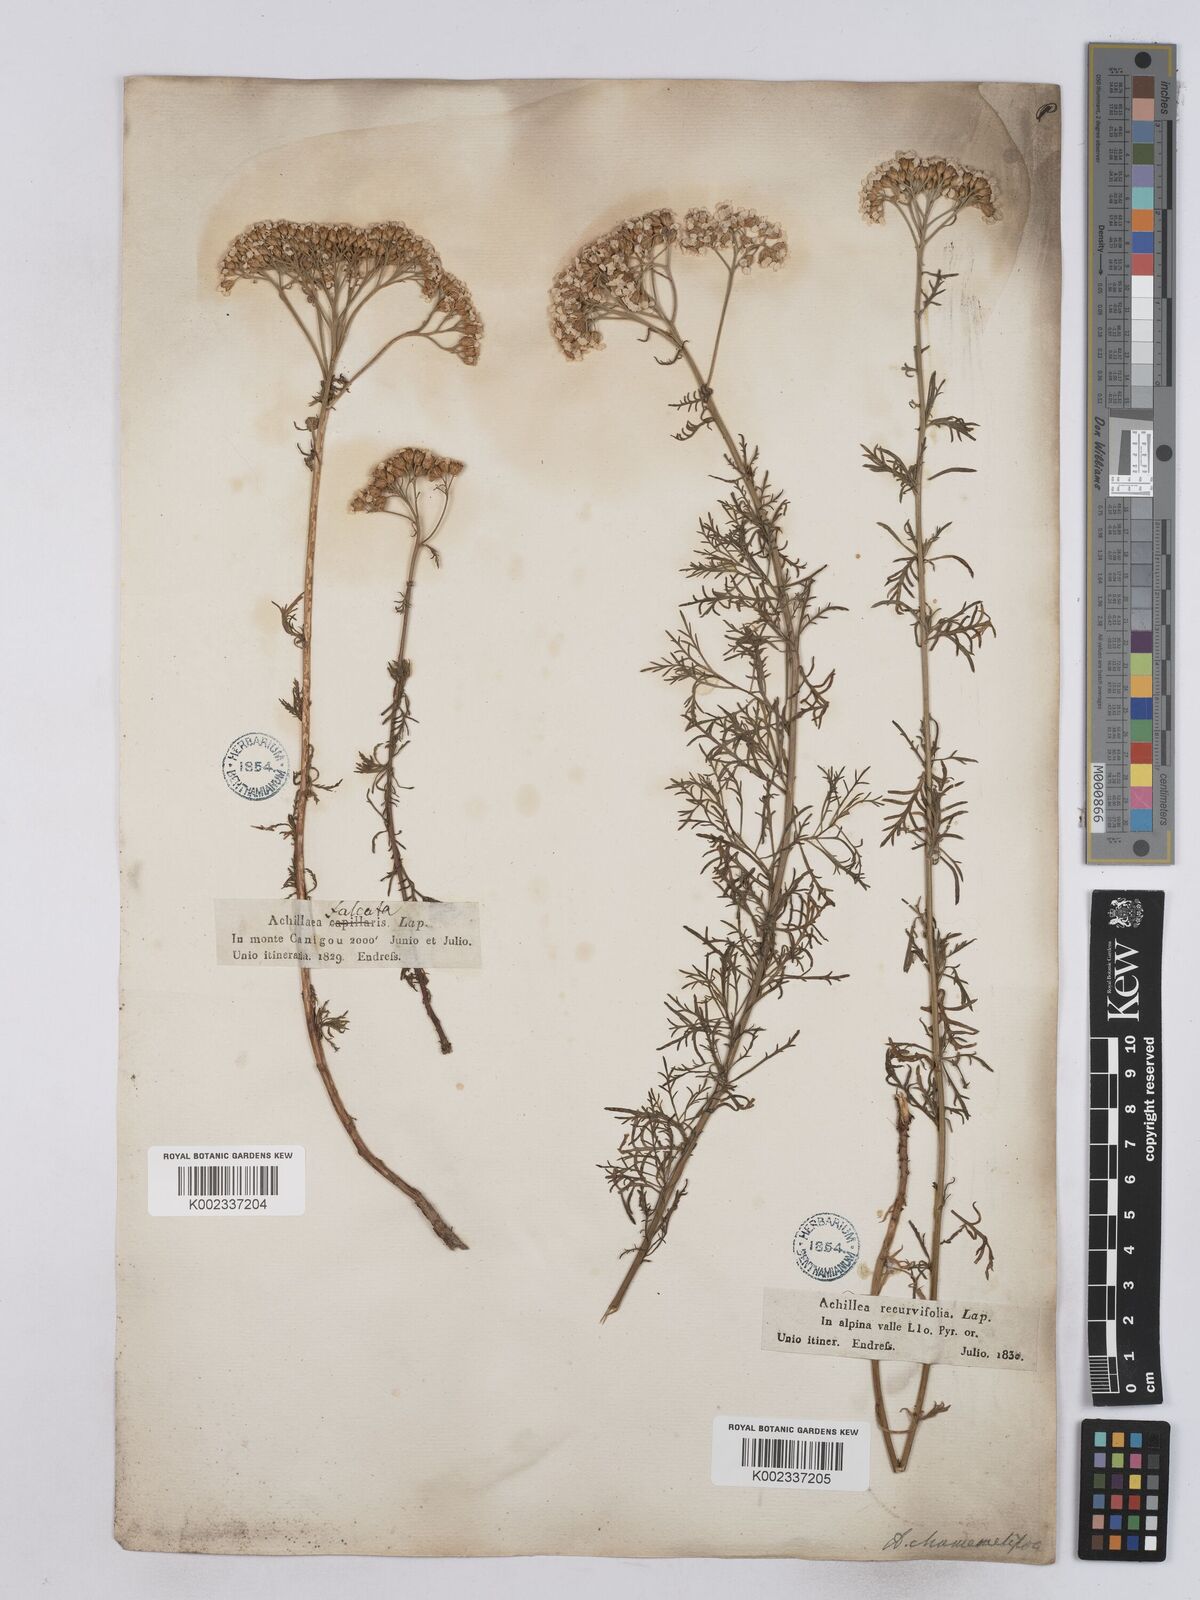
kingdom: Plantae
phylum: Tracheophyta
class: Magnoliopsida
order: Asterales
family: Asteraceae
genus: Achillea
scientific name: Achillea chamaemelifolia
